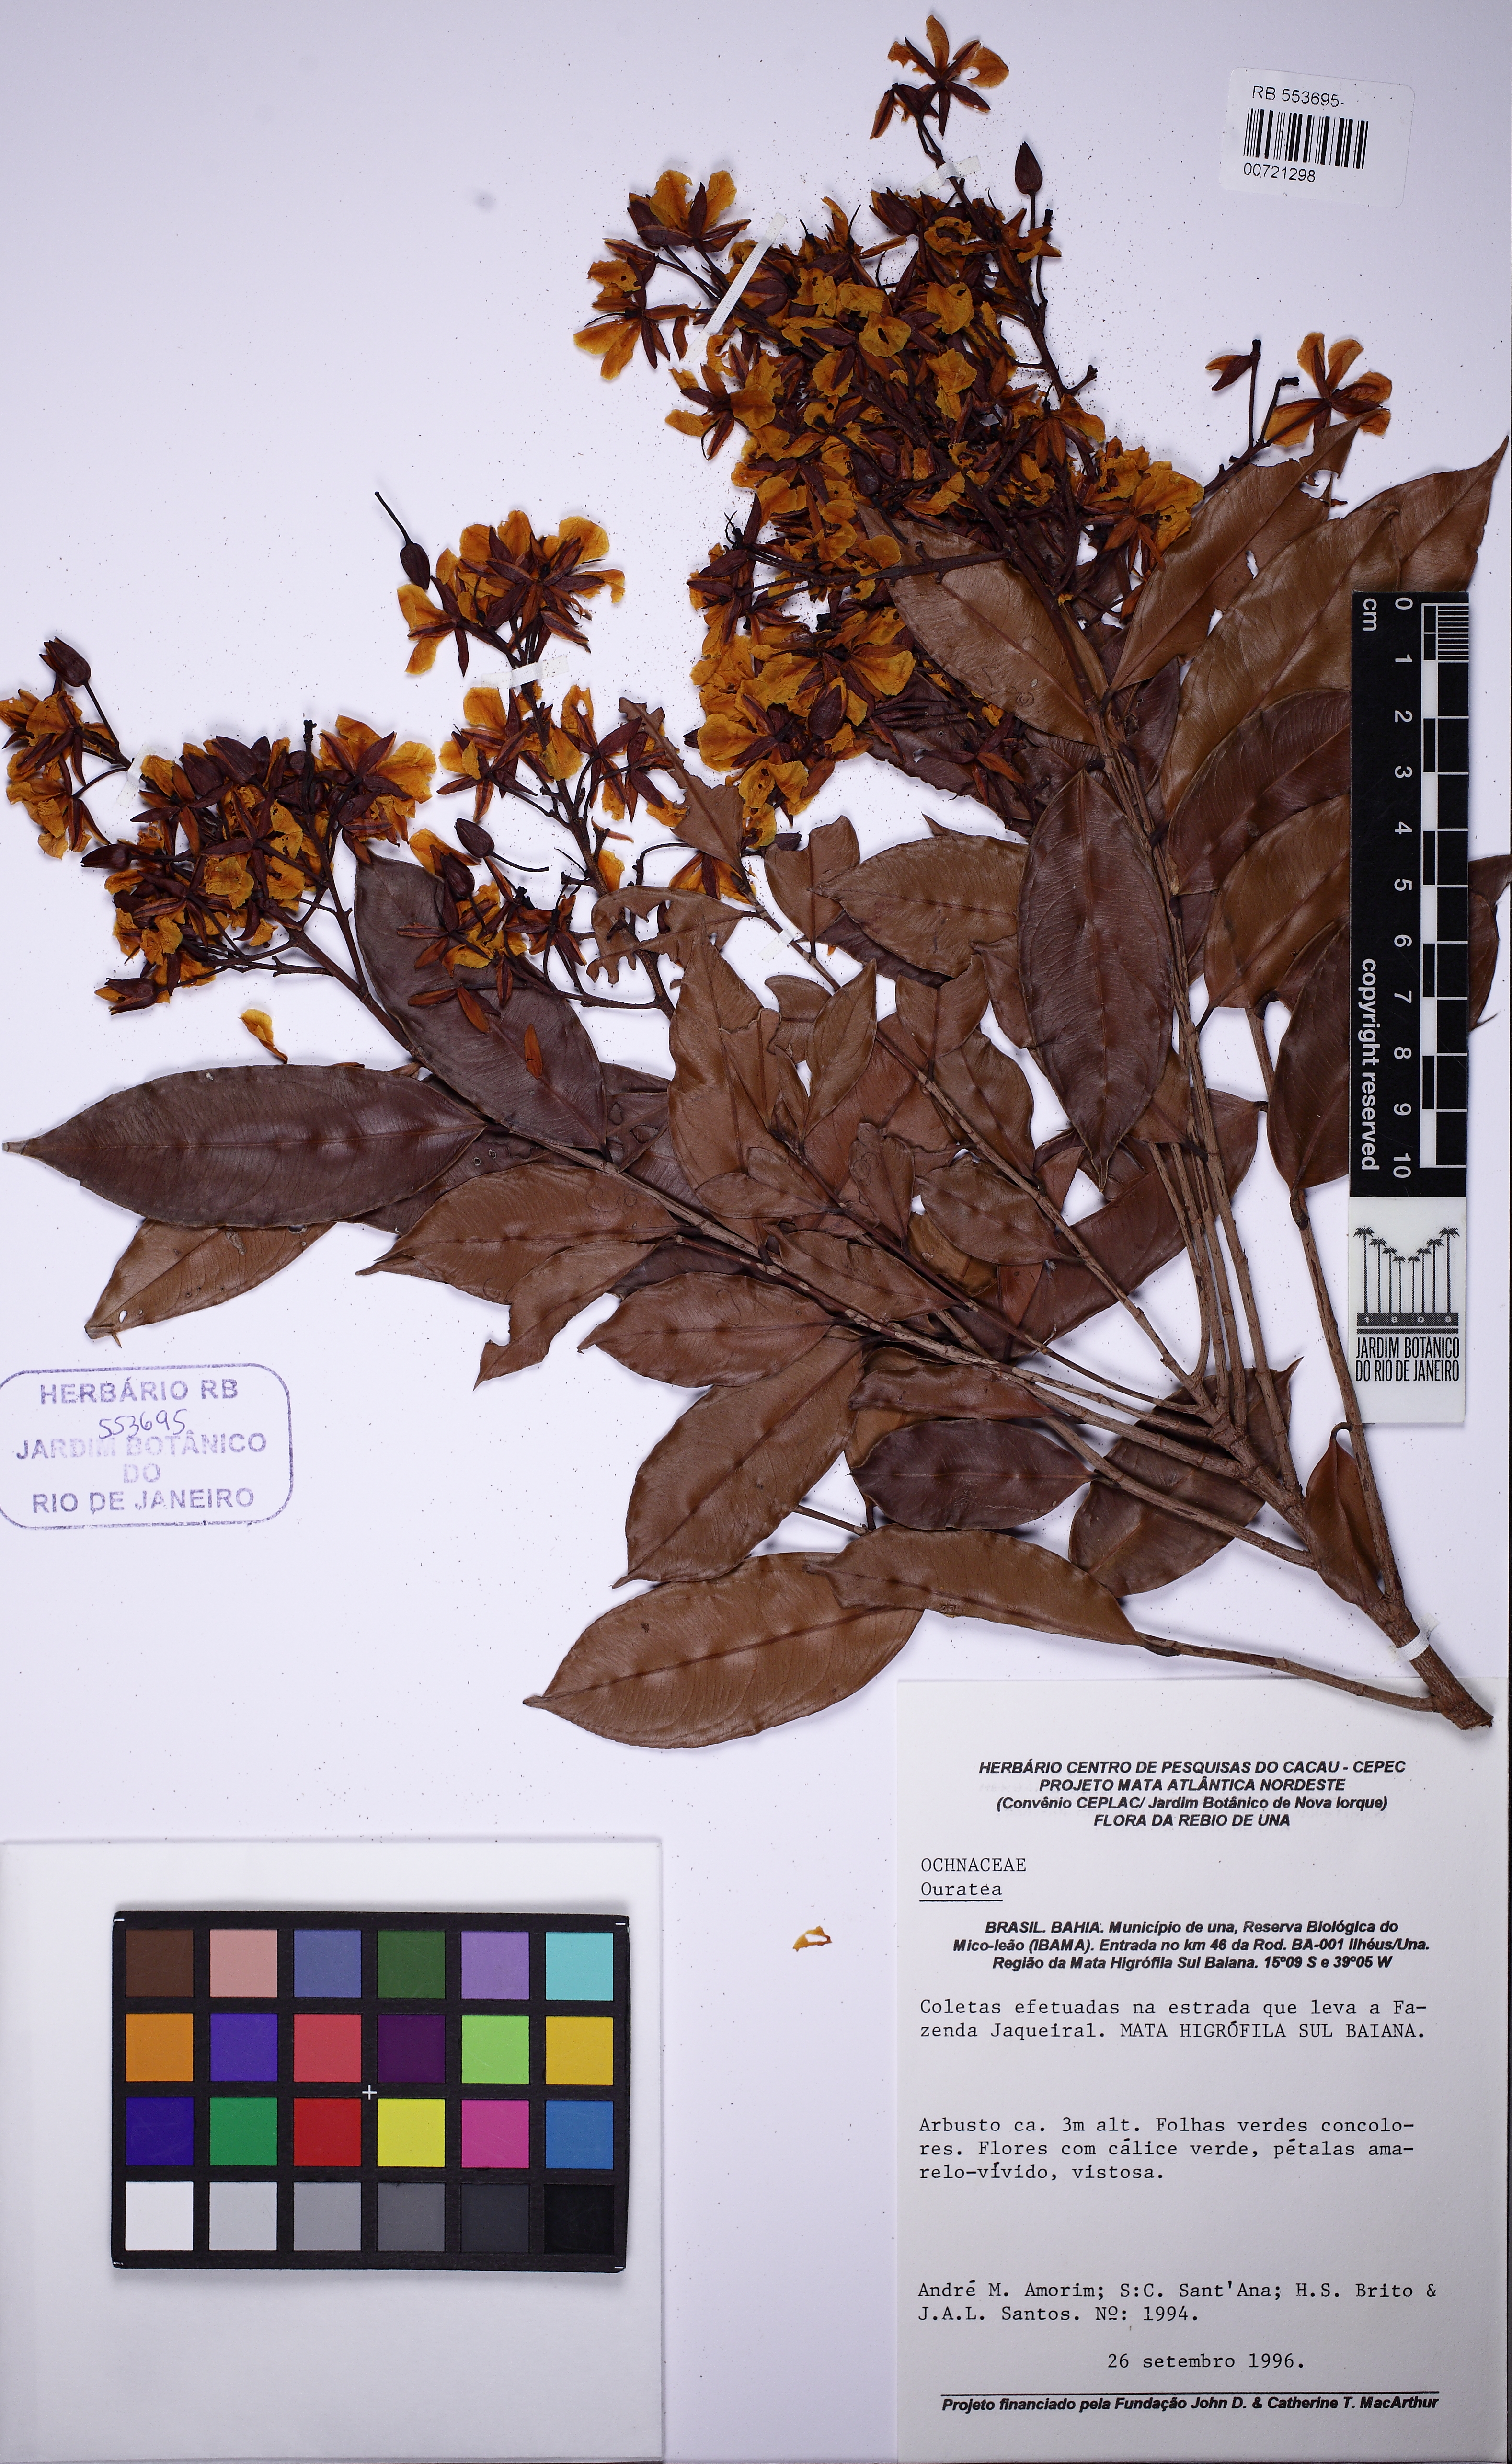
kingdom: Plantae
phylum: Tracheophyta
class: Magnoliopsida
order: Malpighiales
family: Ochnaceae
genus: Ouratea
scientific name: Ouratea
